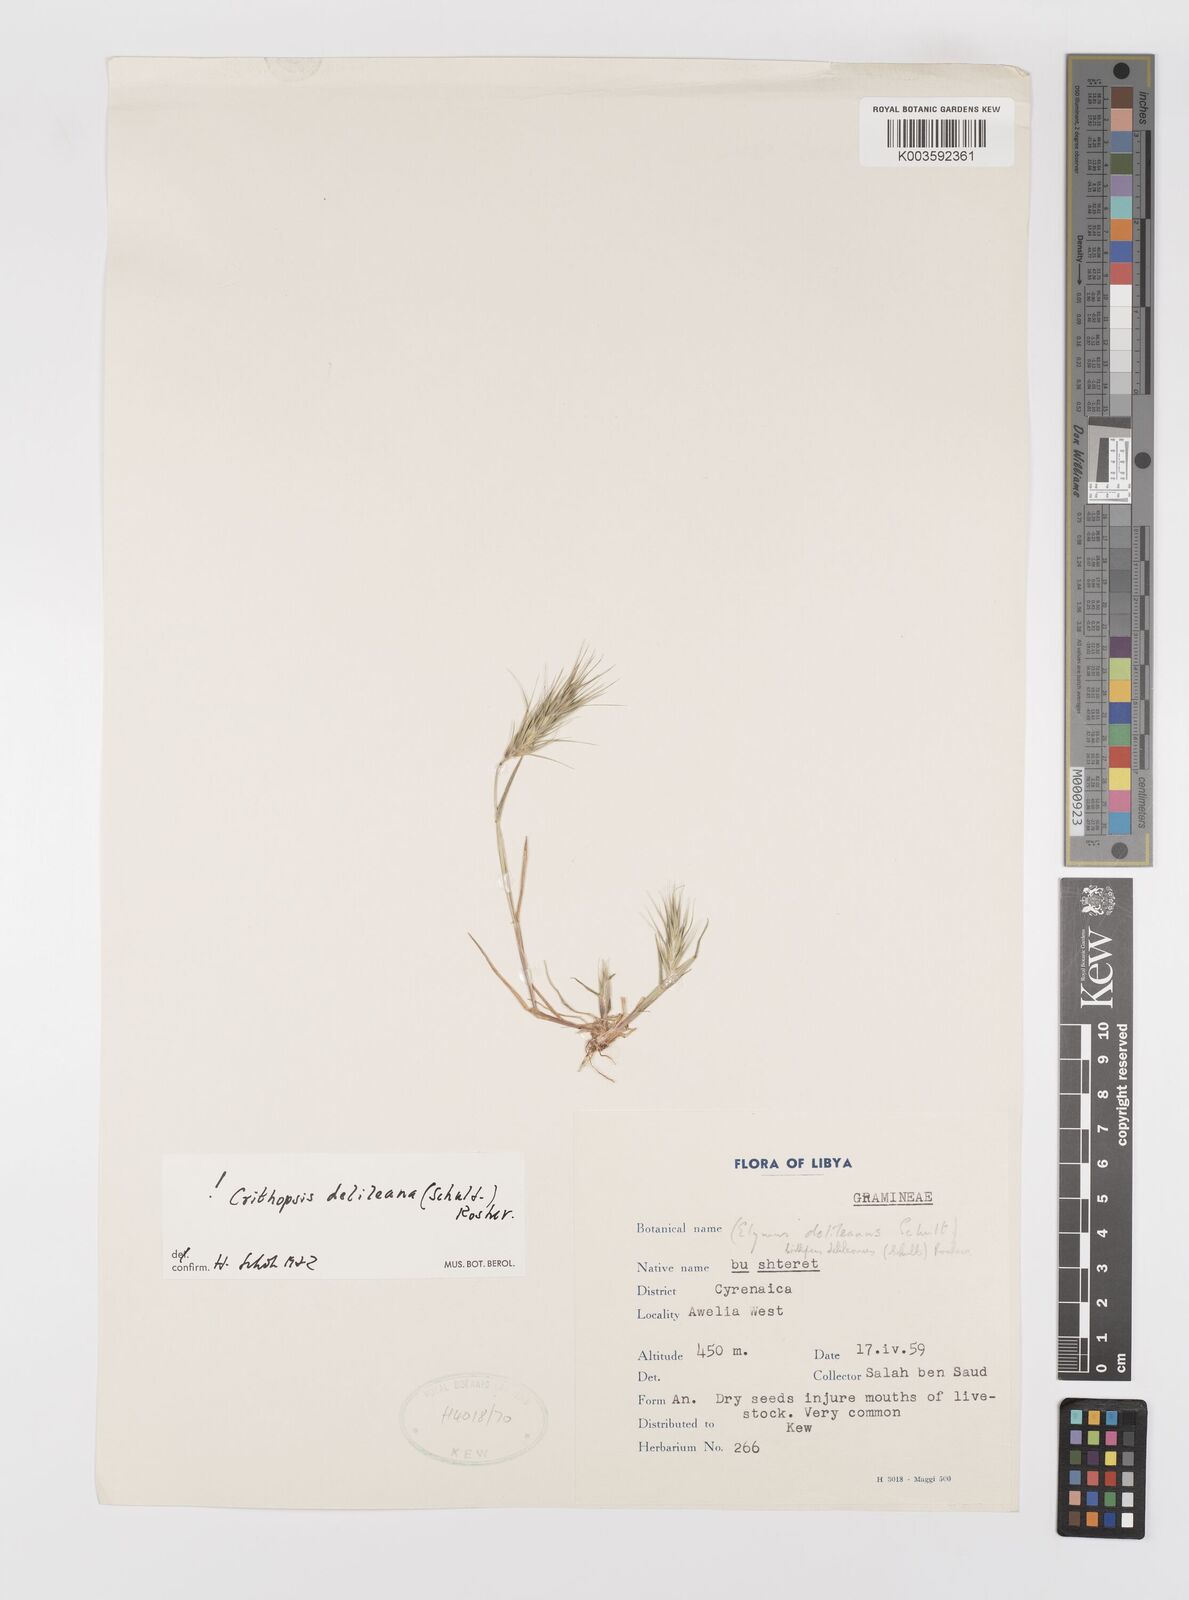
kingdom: Plantae
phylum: Tracheophyta
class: Liliopsida
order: Poales
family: Poaceae
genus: Crithopsis
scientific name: Crithopsis delileana
